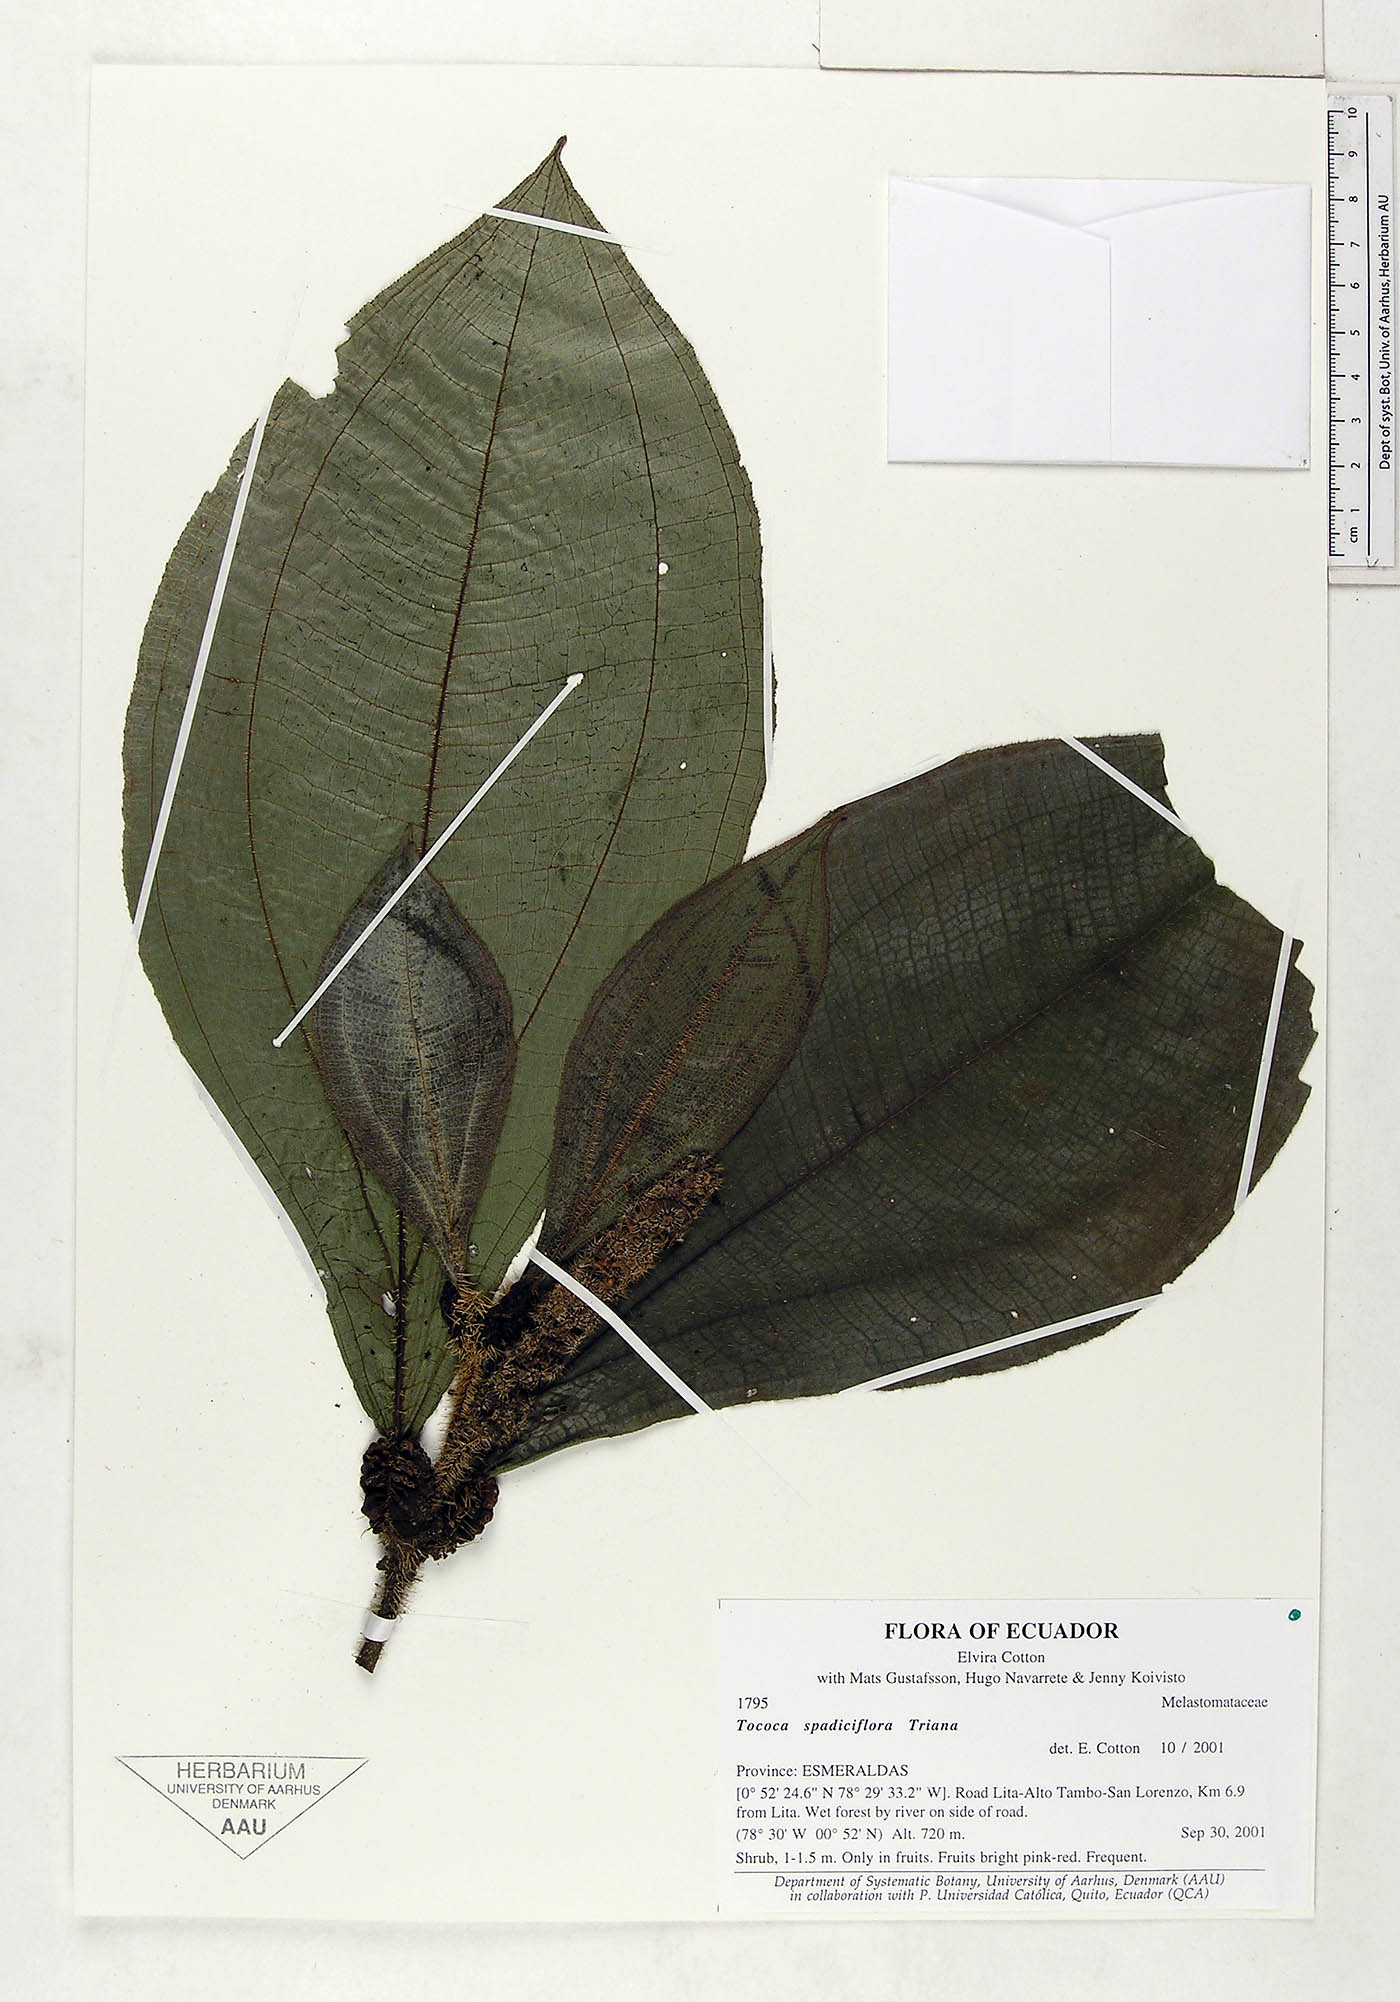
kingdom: Plantae
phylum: Tracheophyta
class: Magnoliopsida
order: Myrtales
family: Melastomataceae
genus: Miconia
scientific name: Miconia spadiciflora
